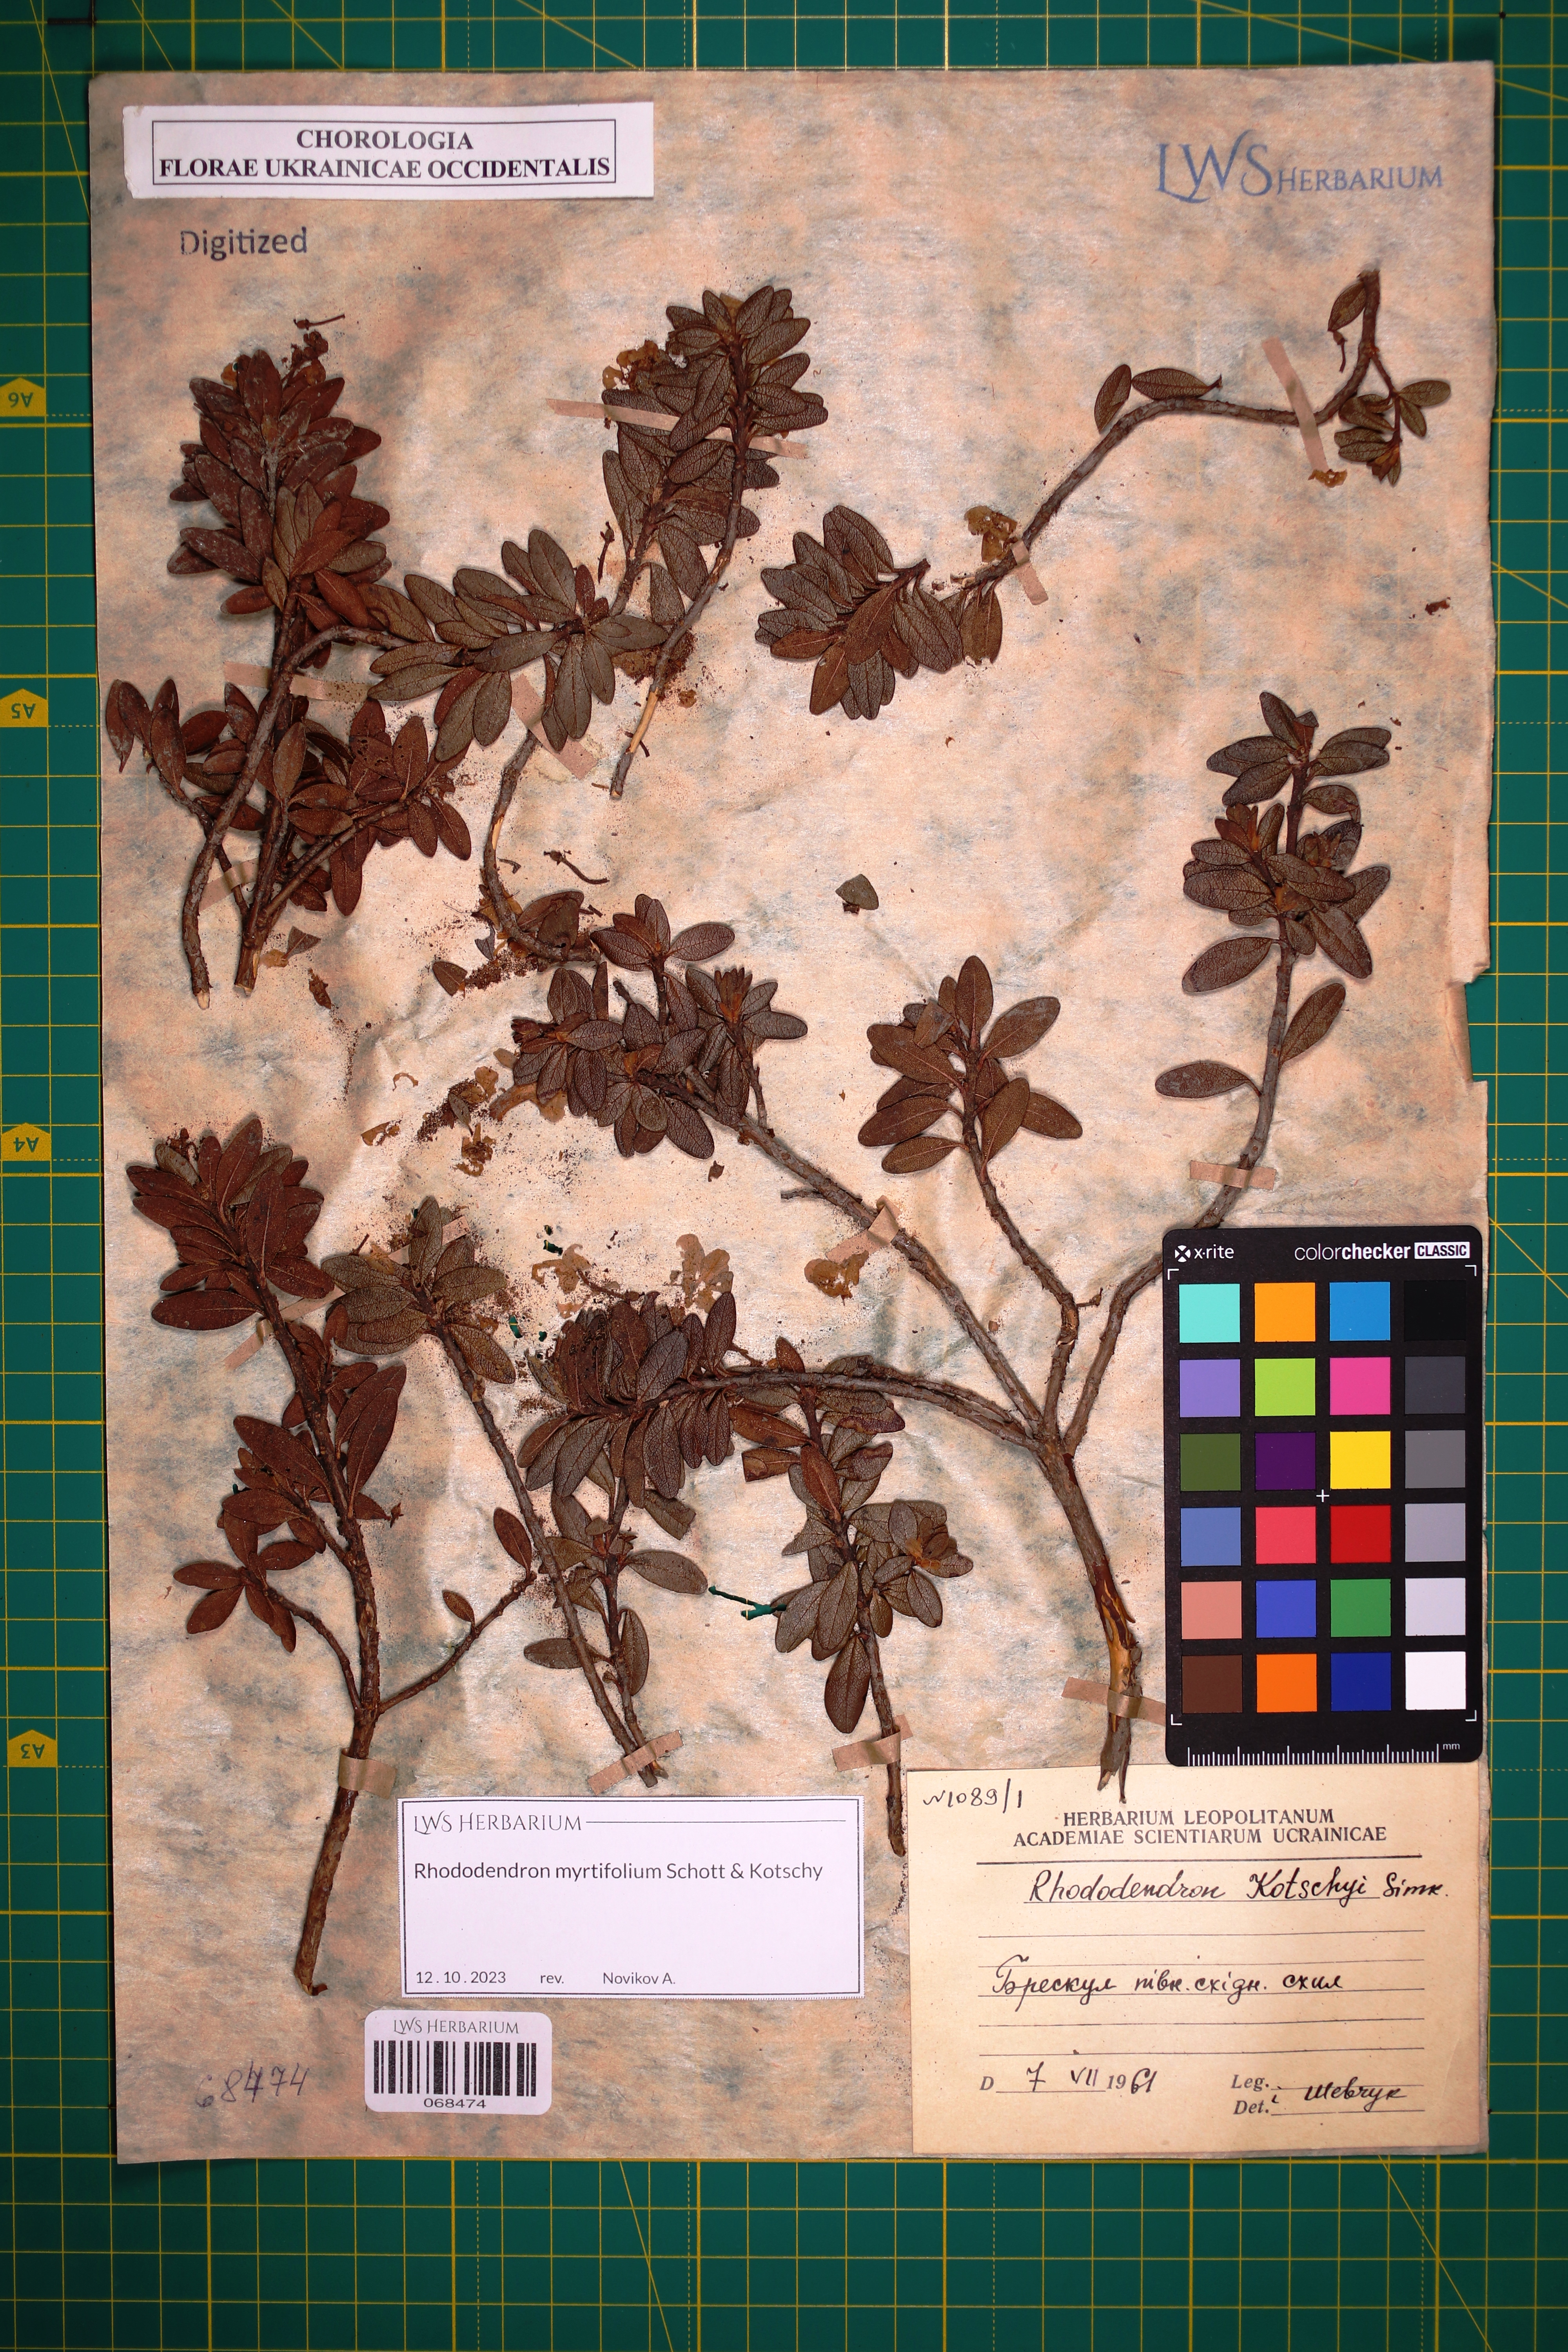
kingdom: Plantae
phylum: Tracheophyta
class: Magnoliopsida
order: Ericales
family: Ericaceae
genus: Rhododendron
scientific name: Rhododendron kotschyi
